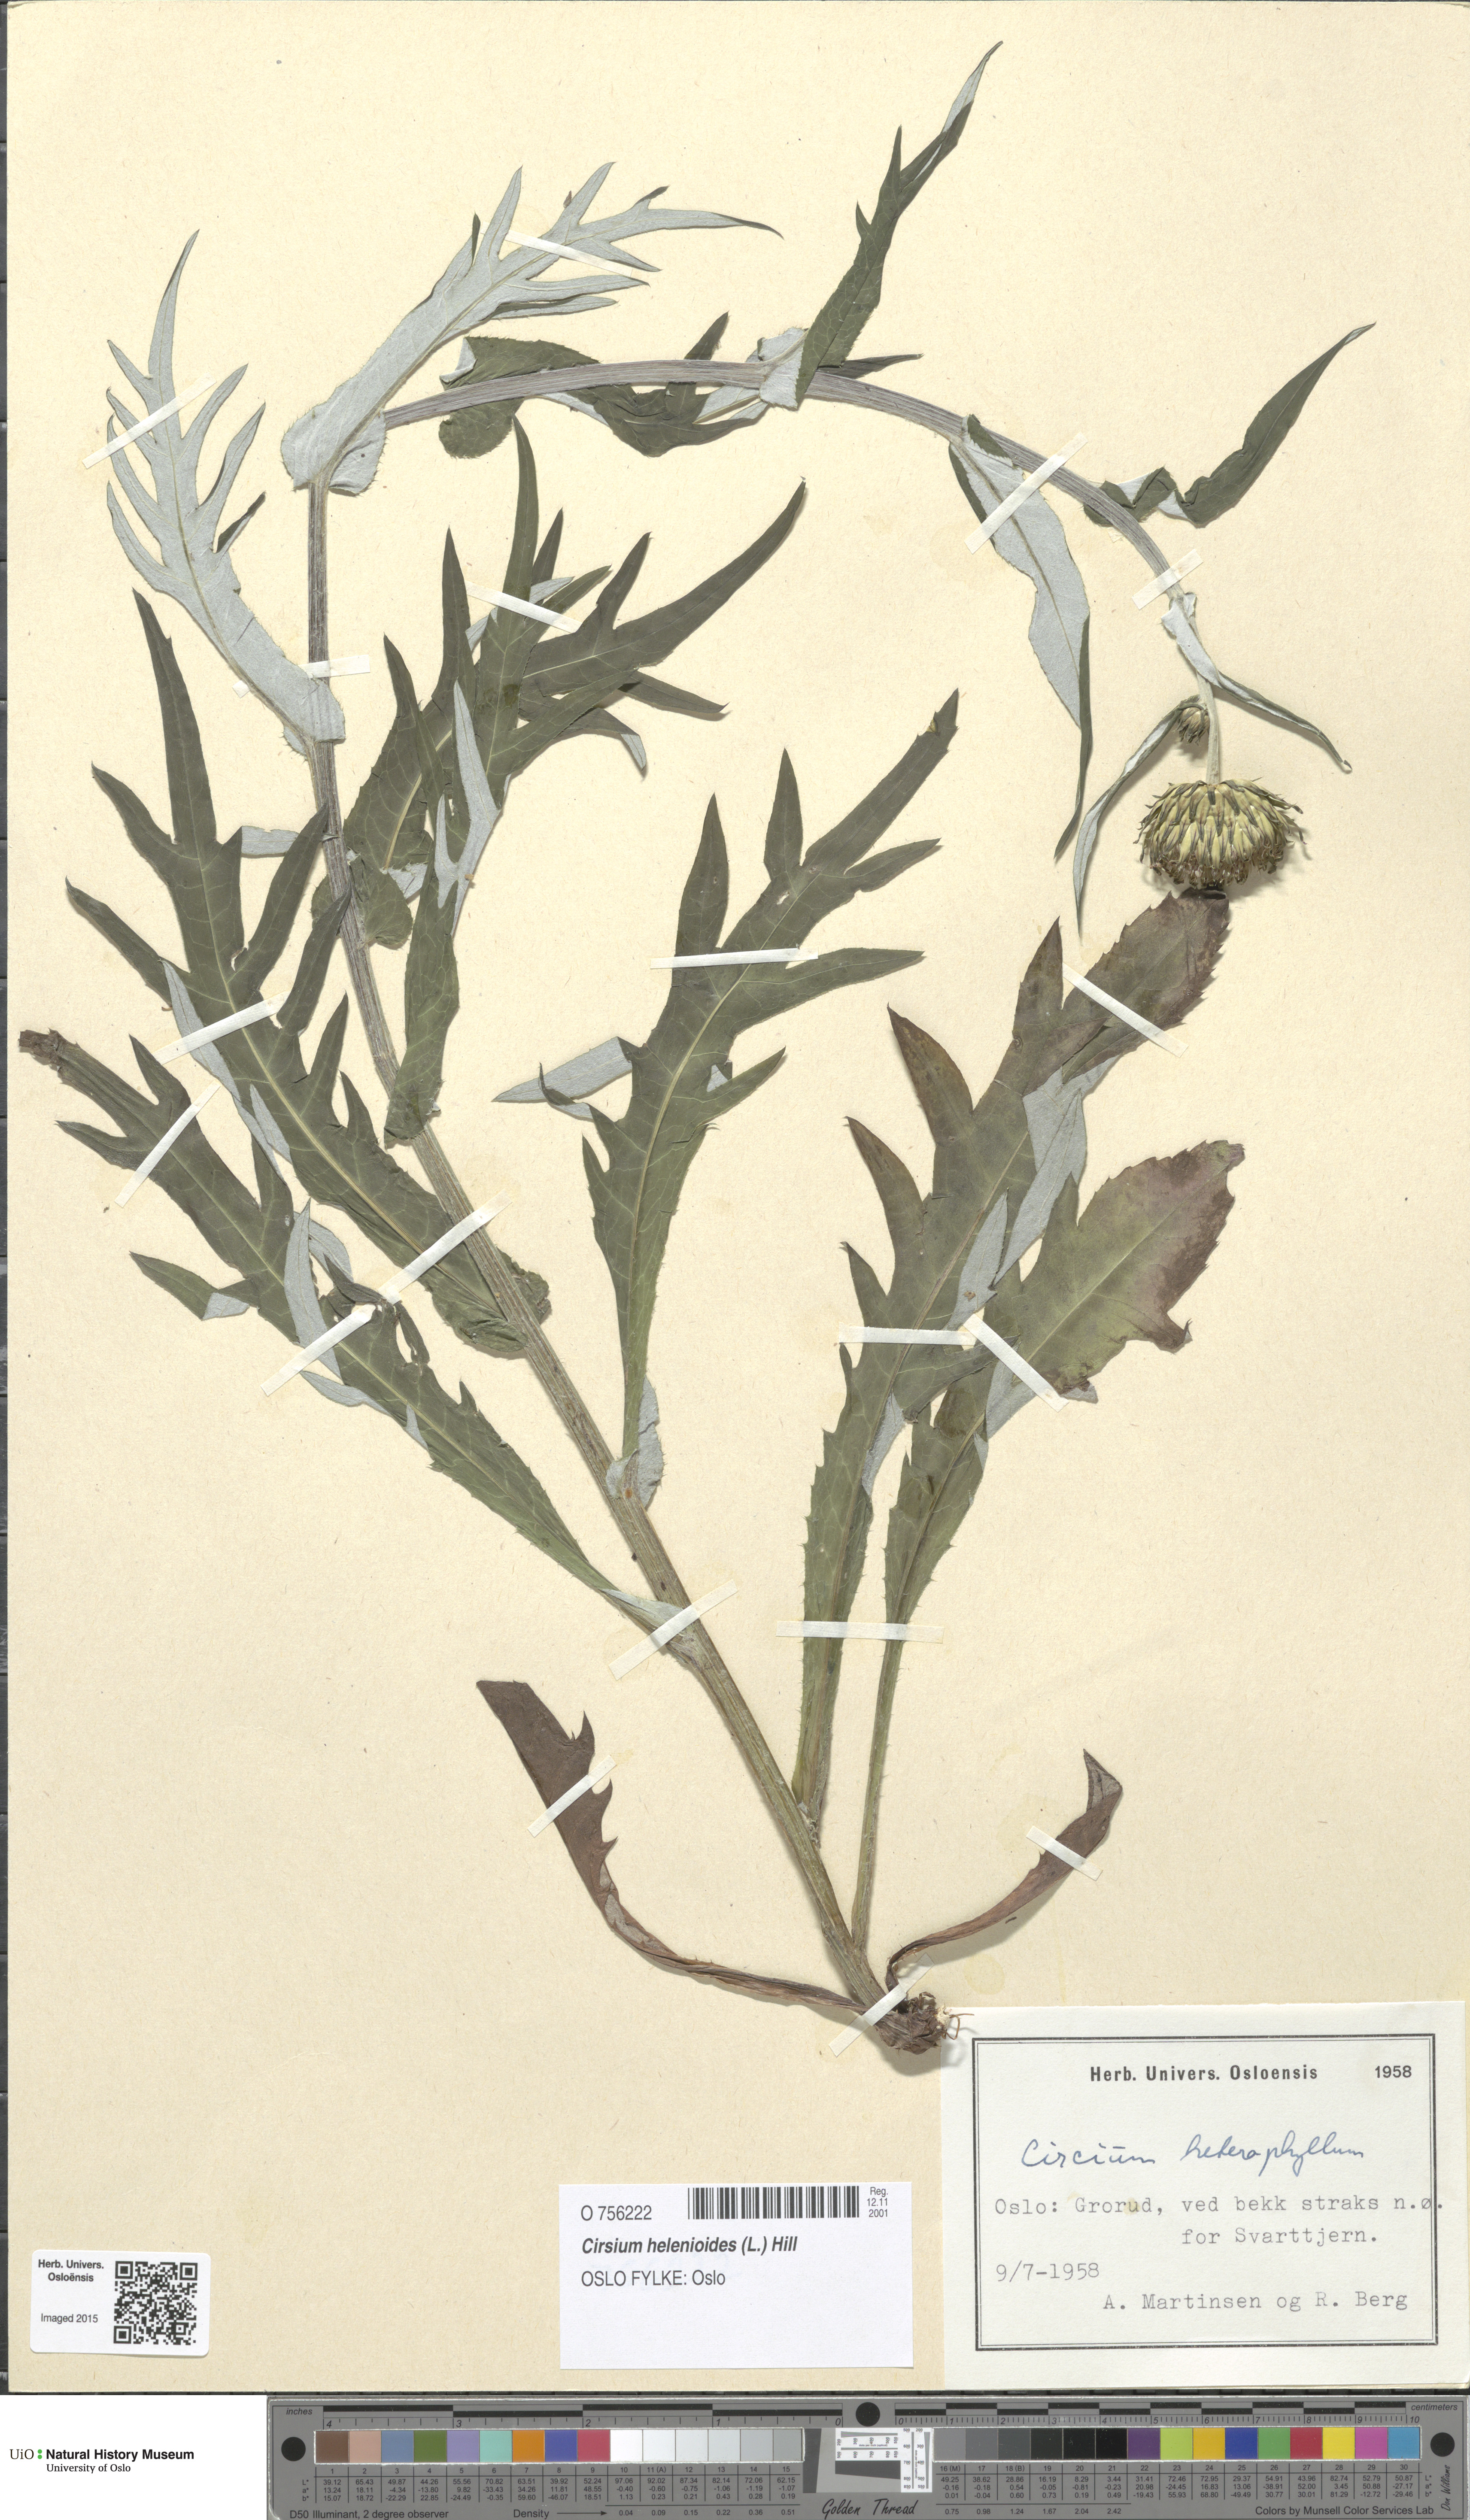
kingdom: Plantae
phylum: Tracheophyta
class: Magnoliopsida
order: Asterales
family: Asteraceae
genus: Cirsium
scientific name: Cirsium heterophyllum
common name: Melancholy thistle
